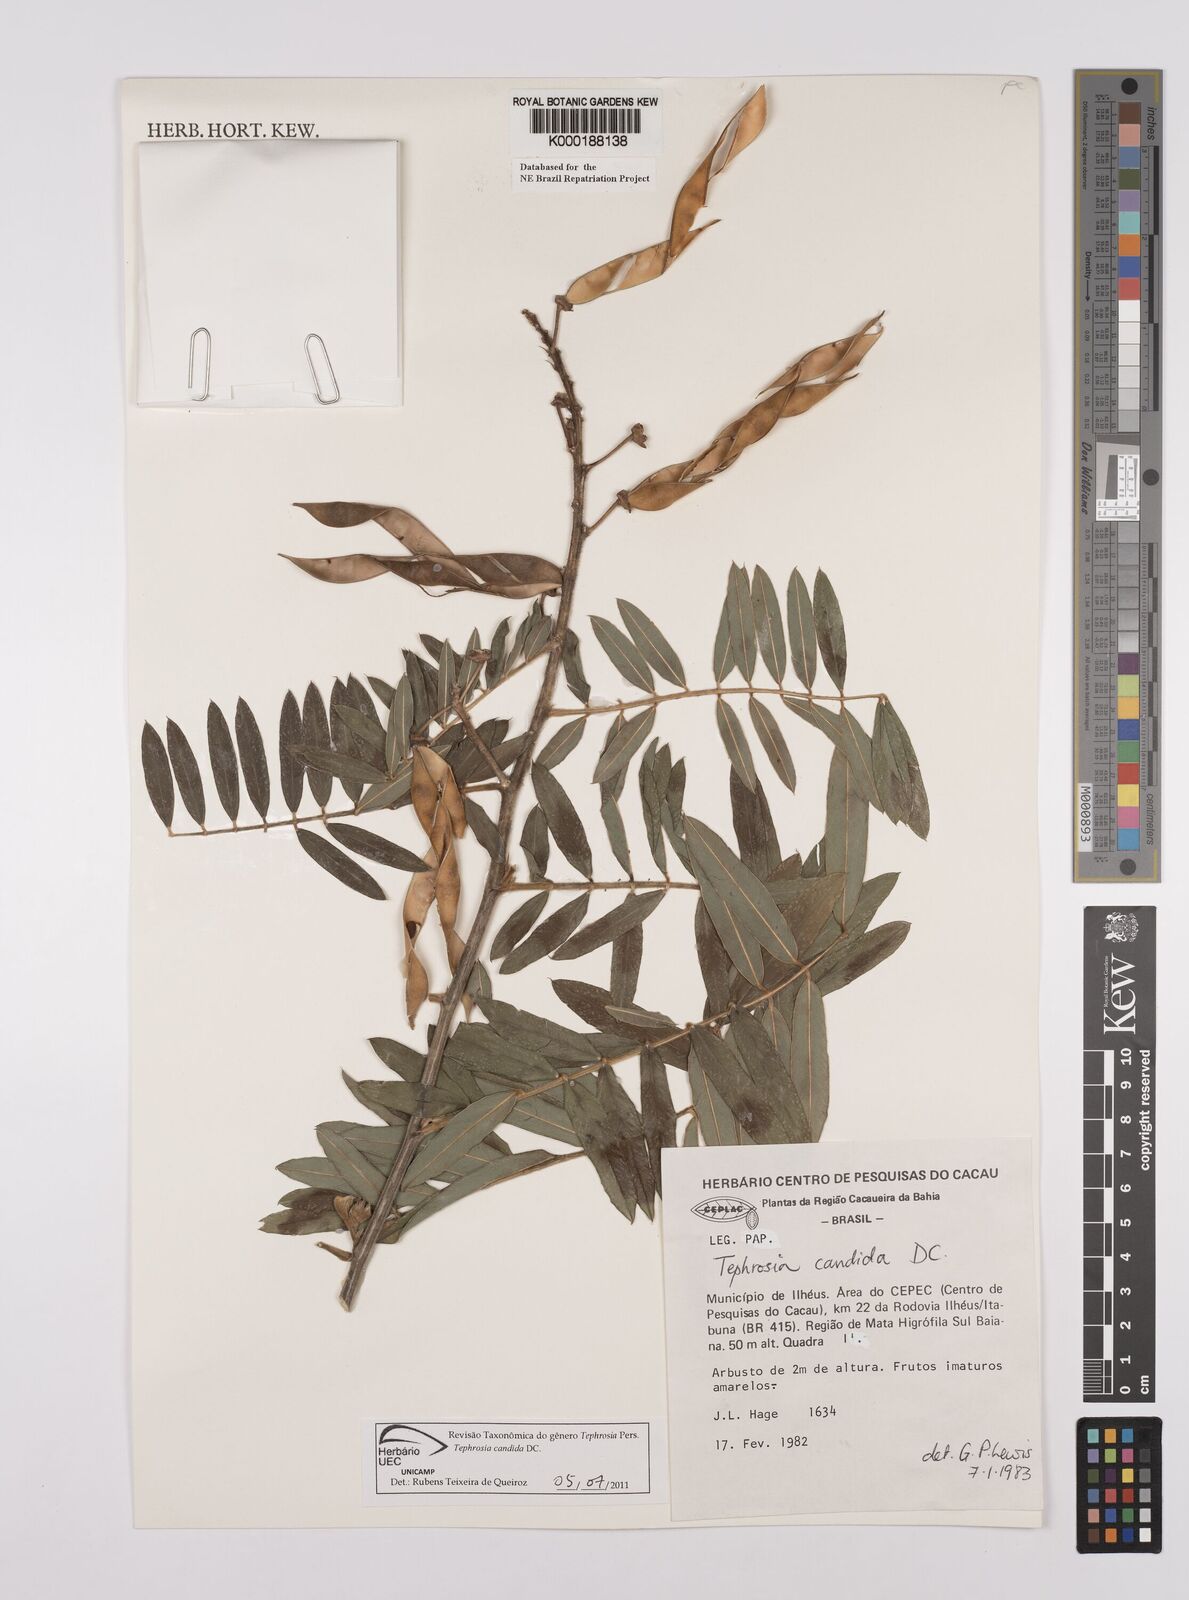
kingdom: Plantae
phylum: Tracheophyta
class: Magnoliopsida
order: Fabales
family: Fabaceae
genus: Tephrosia
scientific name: Tephrosia candida
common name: White tephrosia
